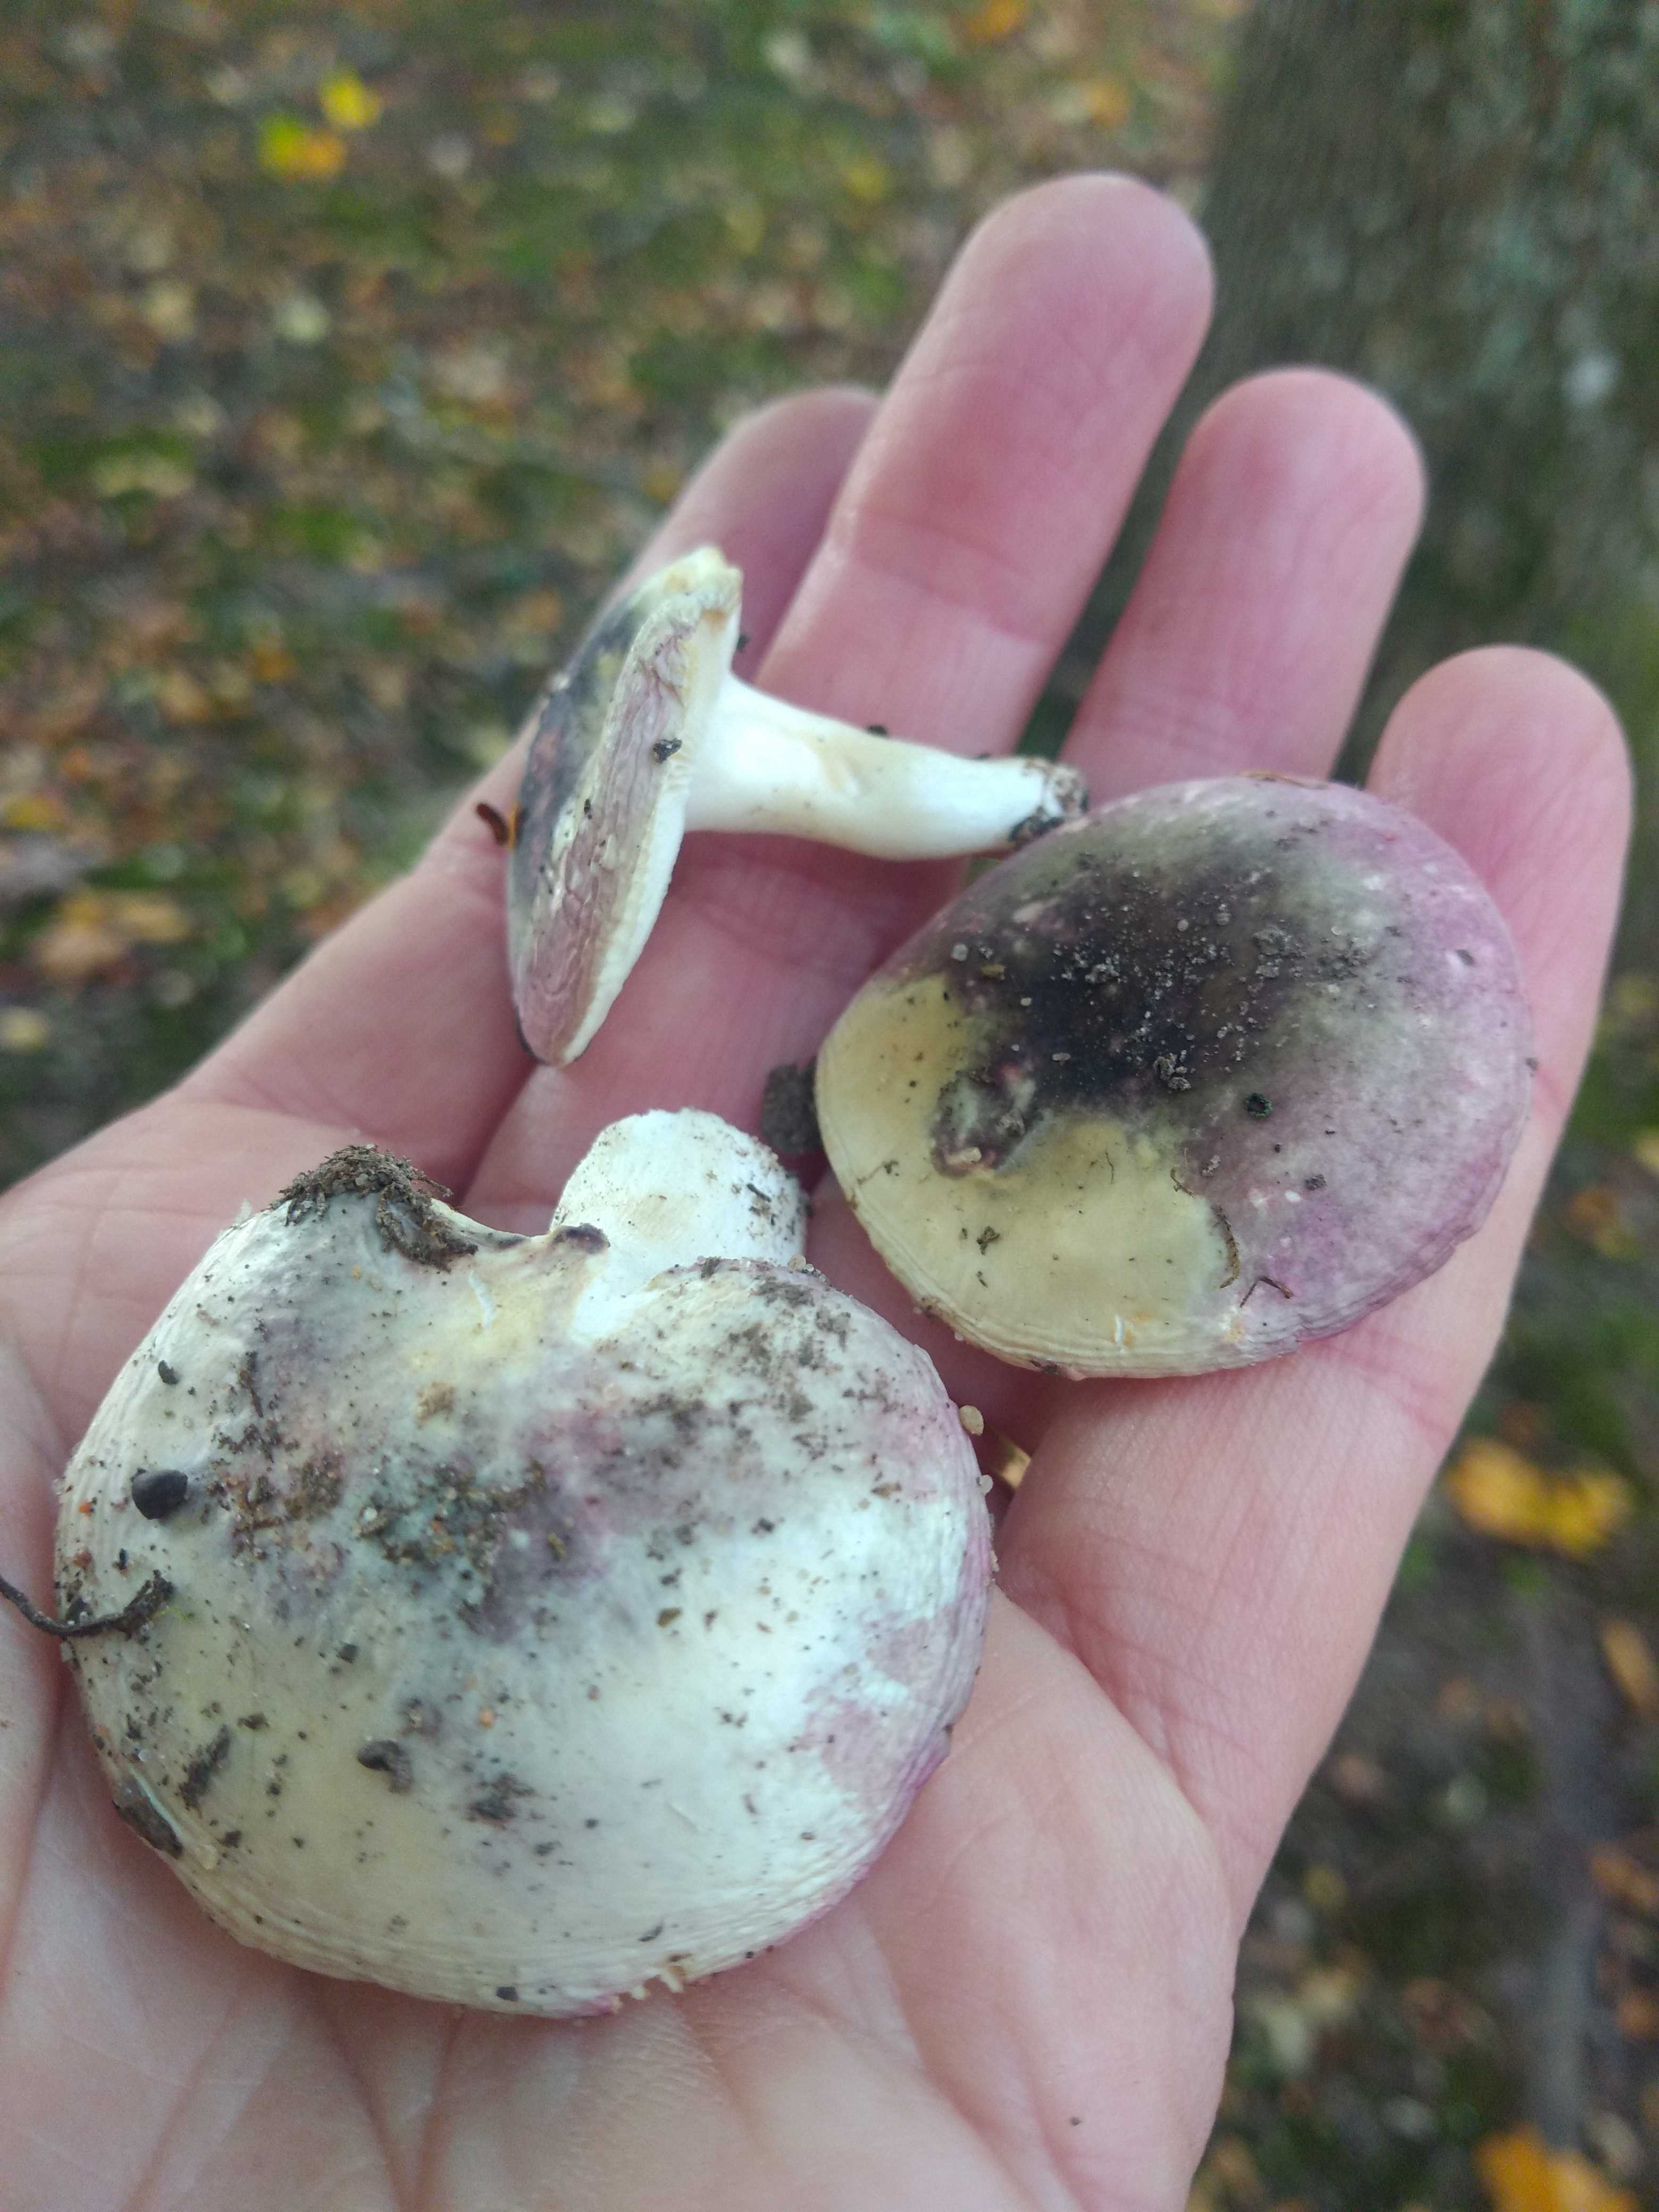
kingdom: Fungi
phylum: Basidiomycota
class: Agaricomycetes
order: Russulales
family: Russulaceae
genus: Russula
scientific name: Russula fragilis
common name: savbladet skørhat
